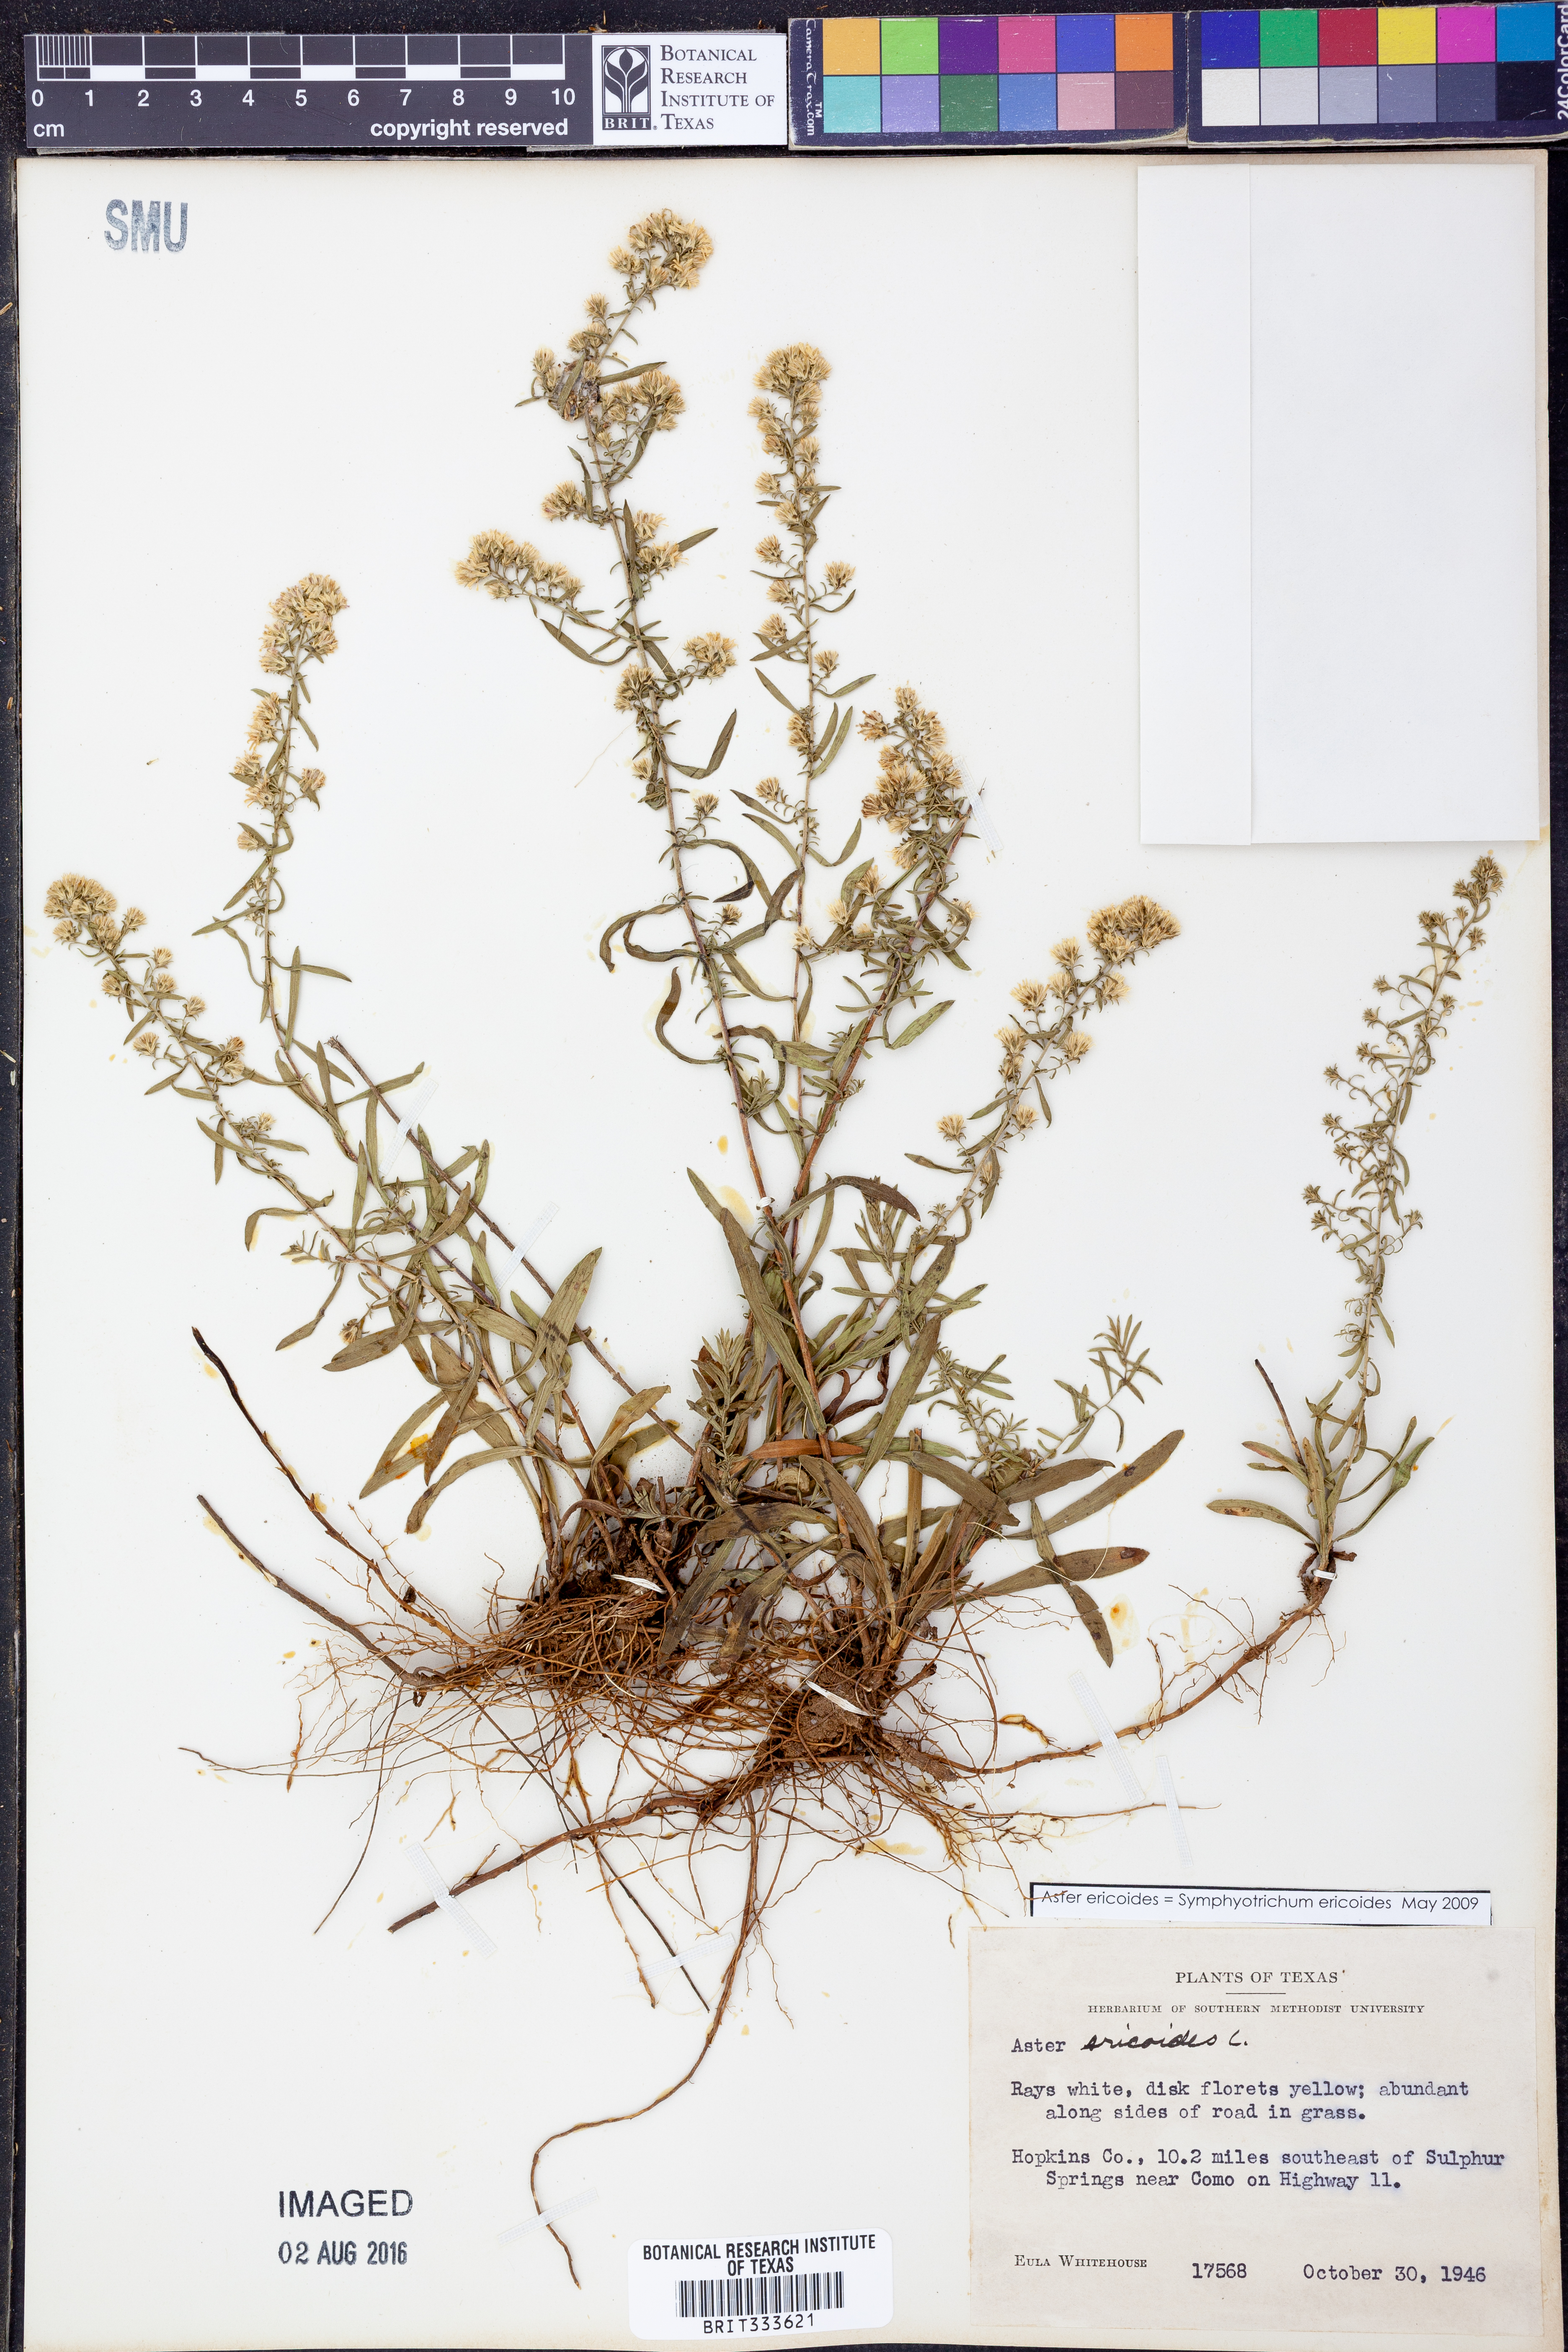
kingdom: Plantae
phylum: Tracheophyta
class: Magnoliopsida
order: Asterales
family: Asteraceae
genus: Symphyotrichum
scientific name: Symphyotrichum ericoides
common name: Heath aster
